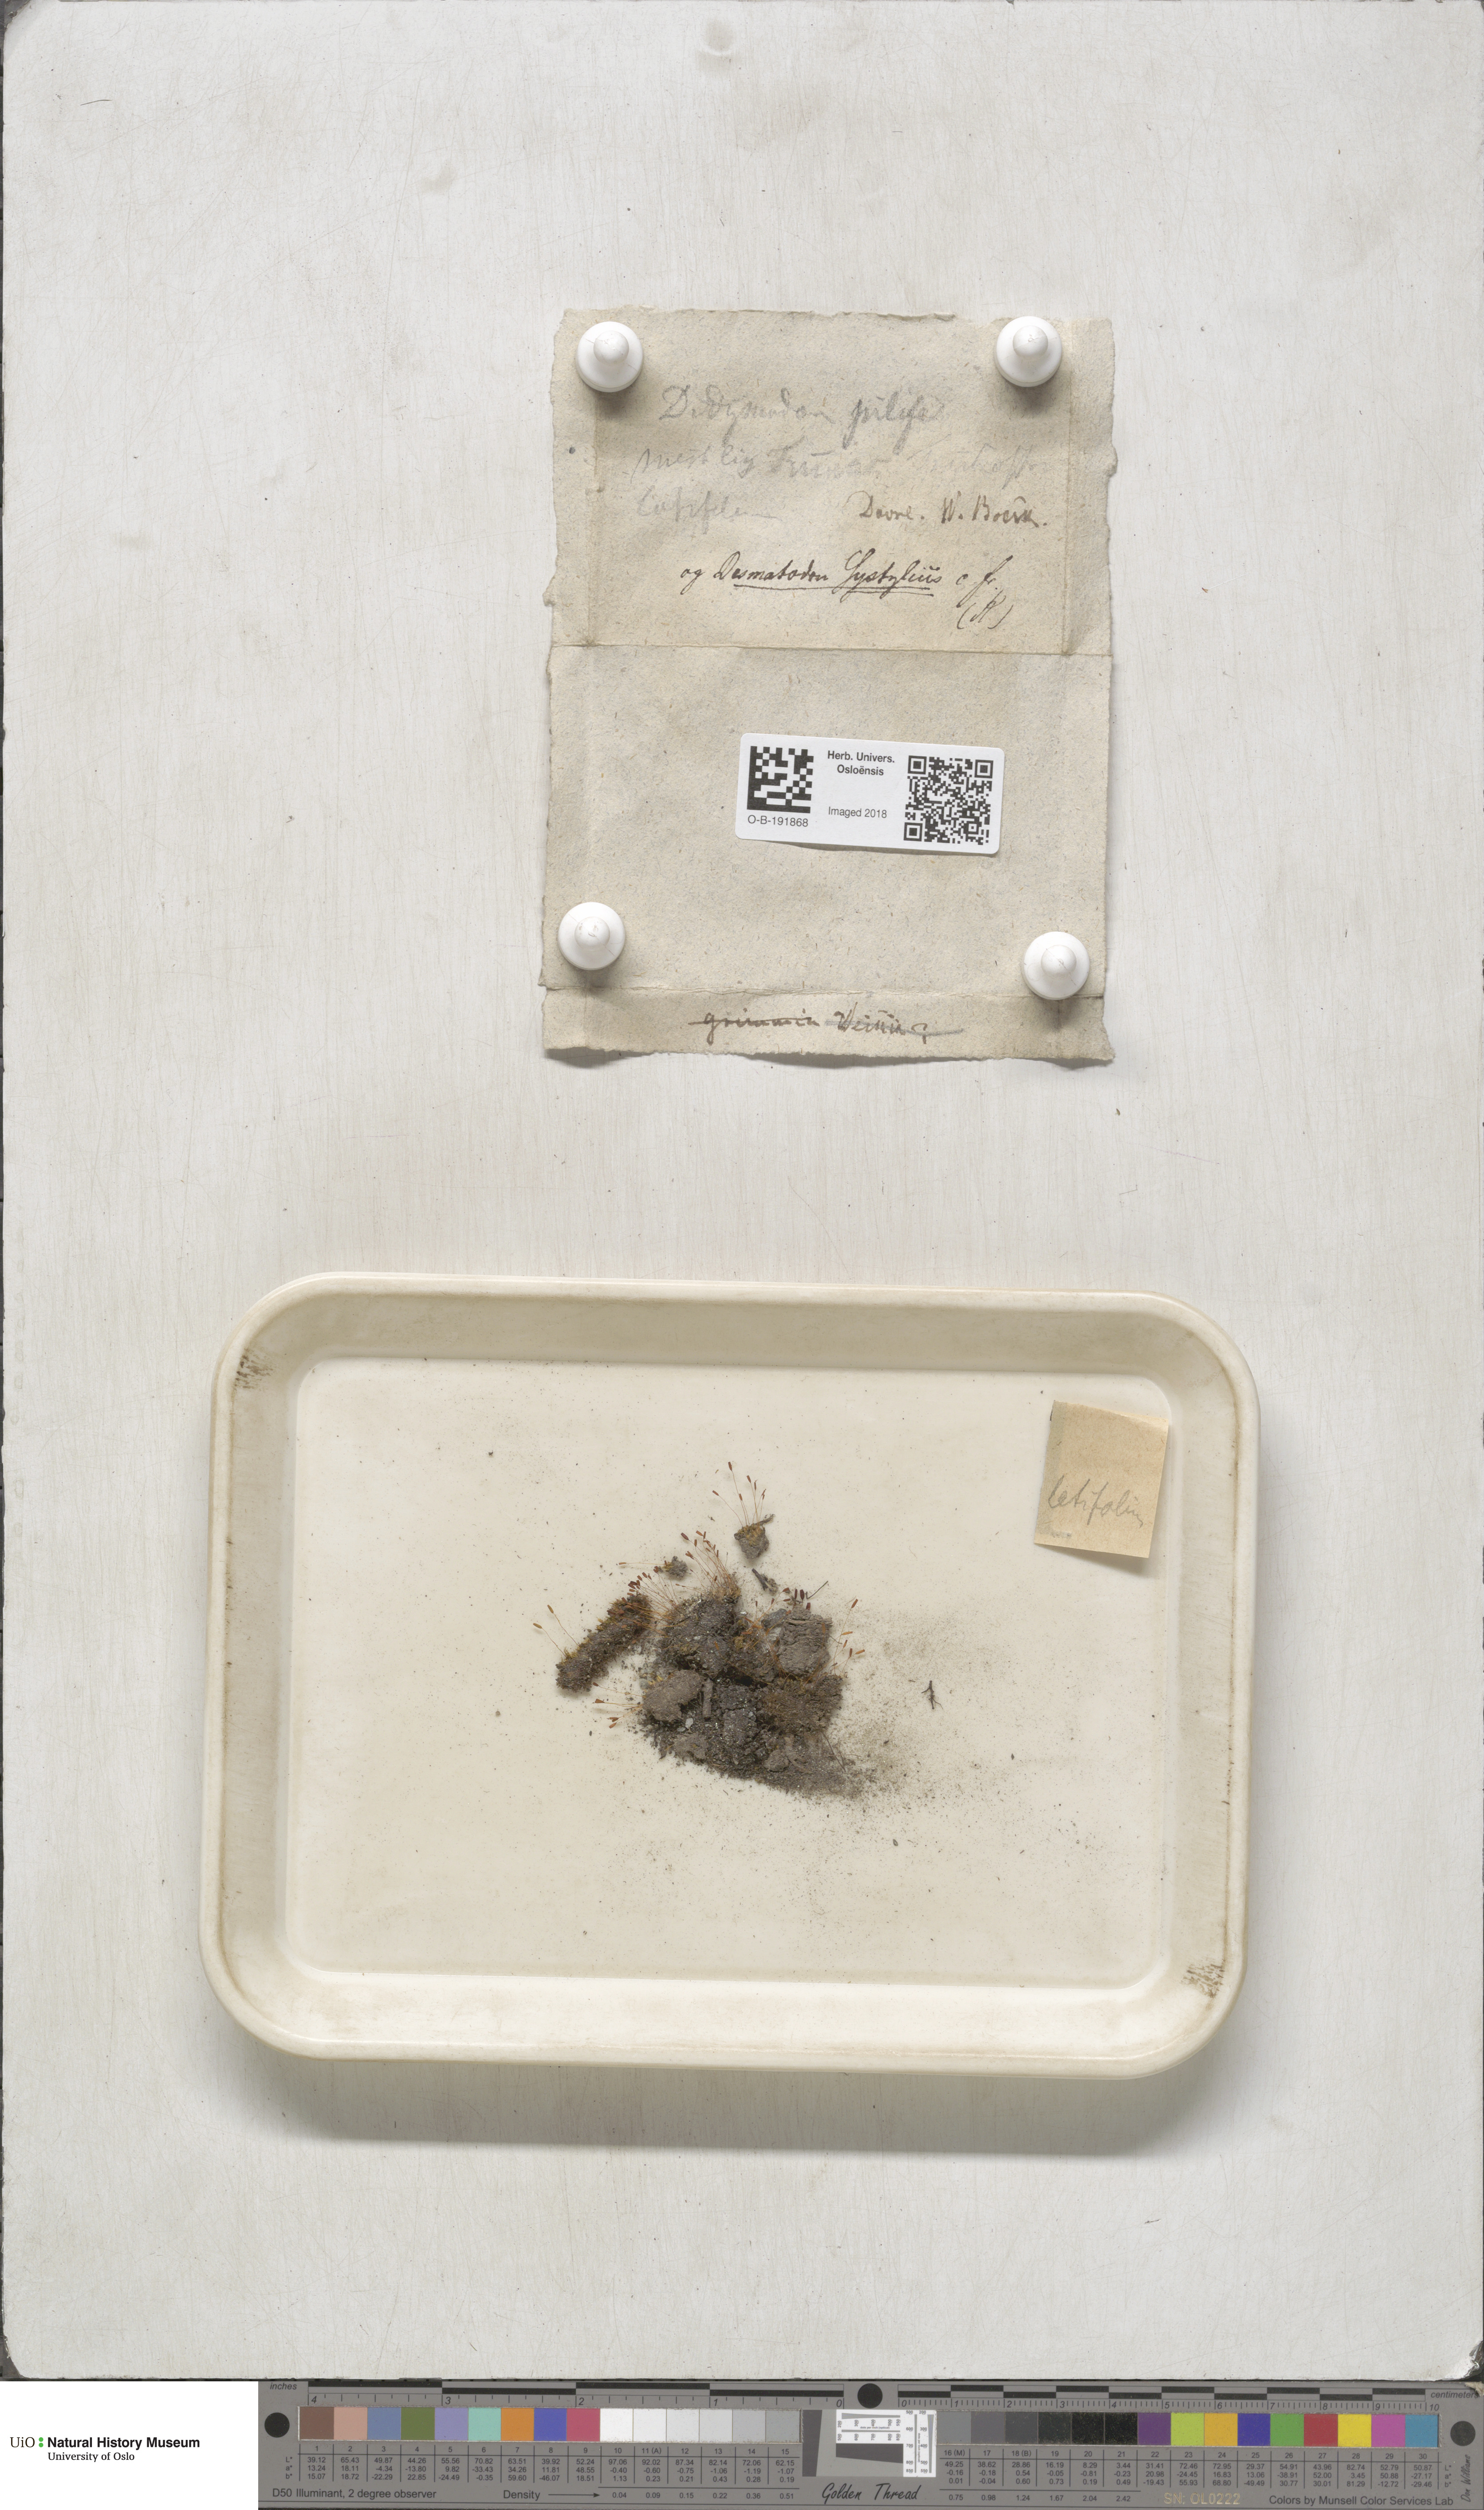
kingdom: Plantae
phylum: Bryophyta
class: Bryopsida
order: Pottiales
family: Pottiaceae
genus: Tortula
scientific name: Tortula hoppeana
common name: Hoppe's screw moss
